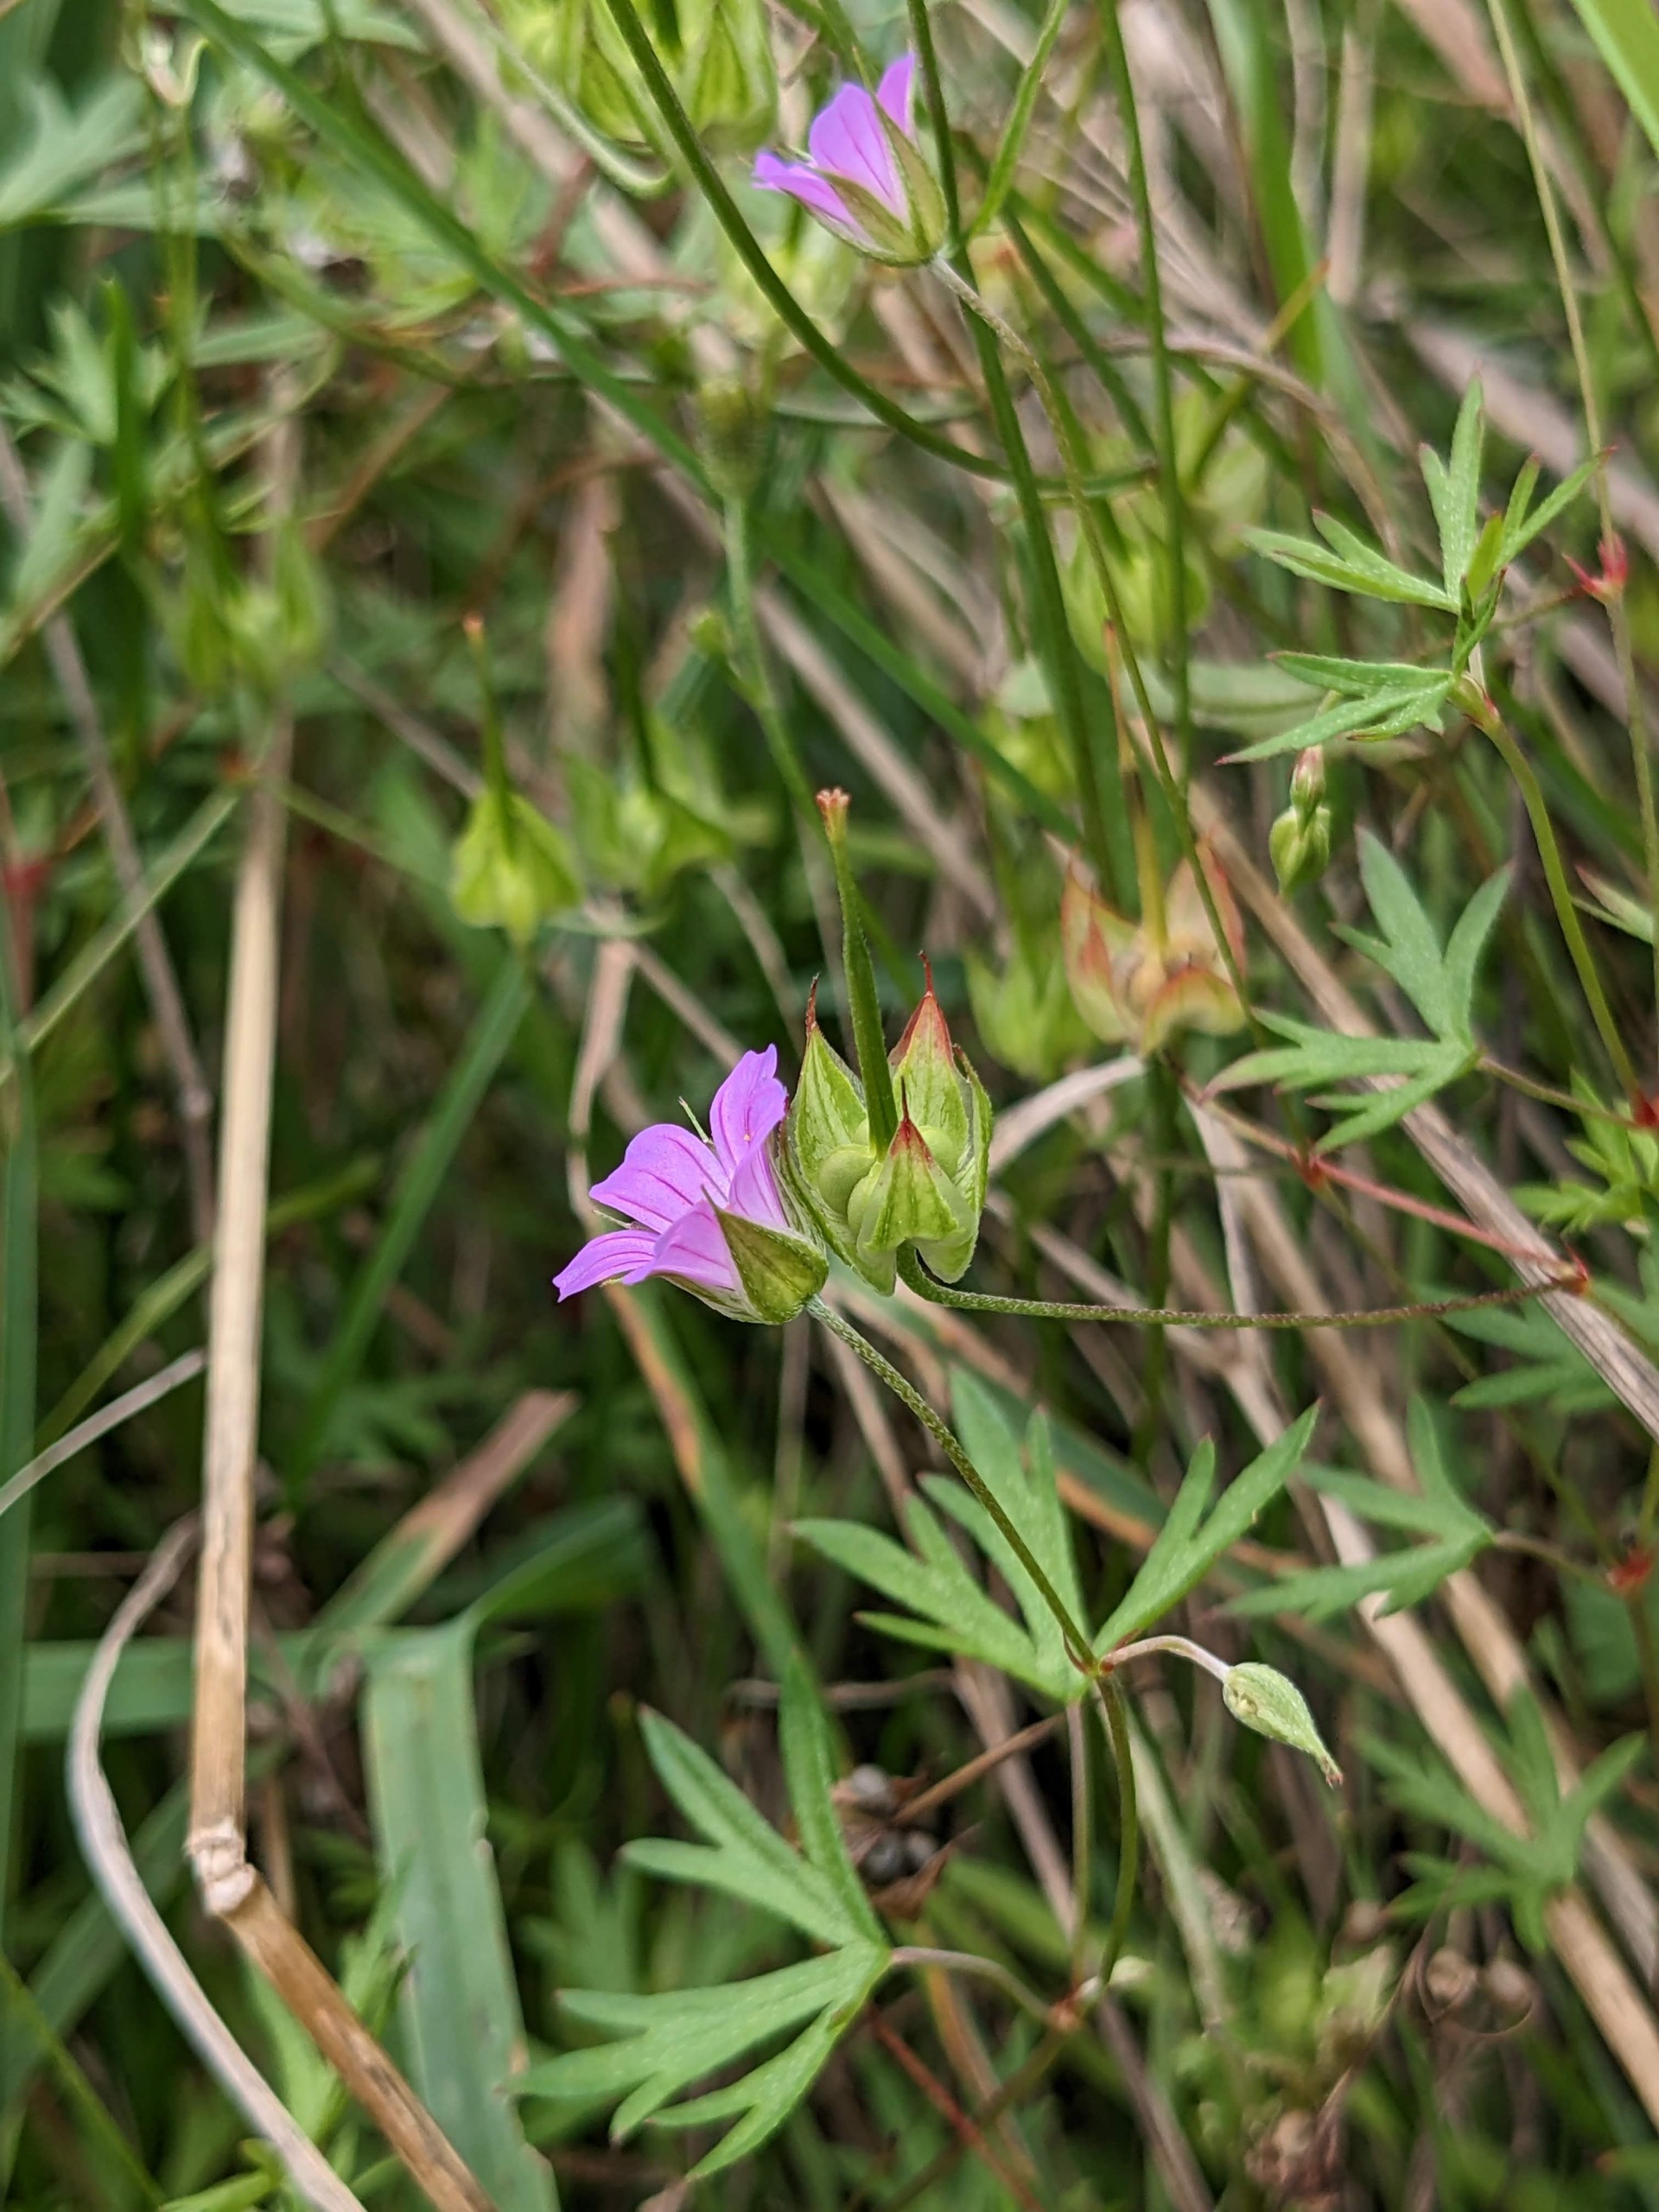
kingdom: Plantae
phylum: Tracheophyta
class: Magnoliopsida
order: Geraniales
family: Geraniaceae
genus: Geranium
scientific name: Geranium columbinum
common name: Storbægret storkenæb
